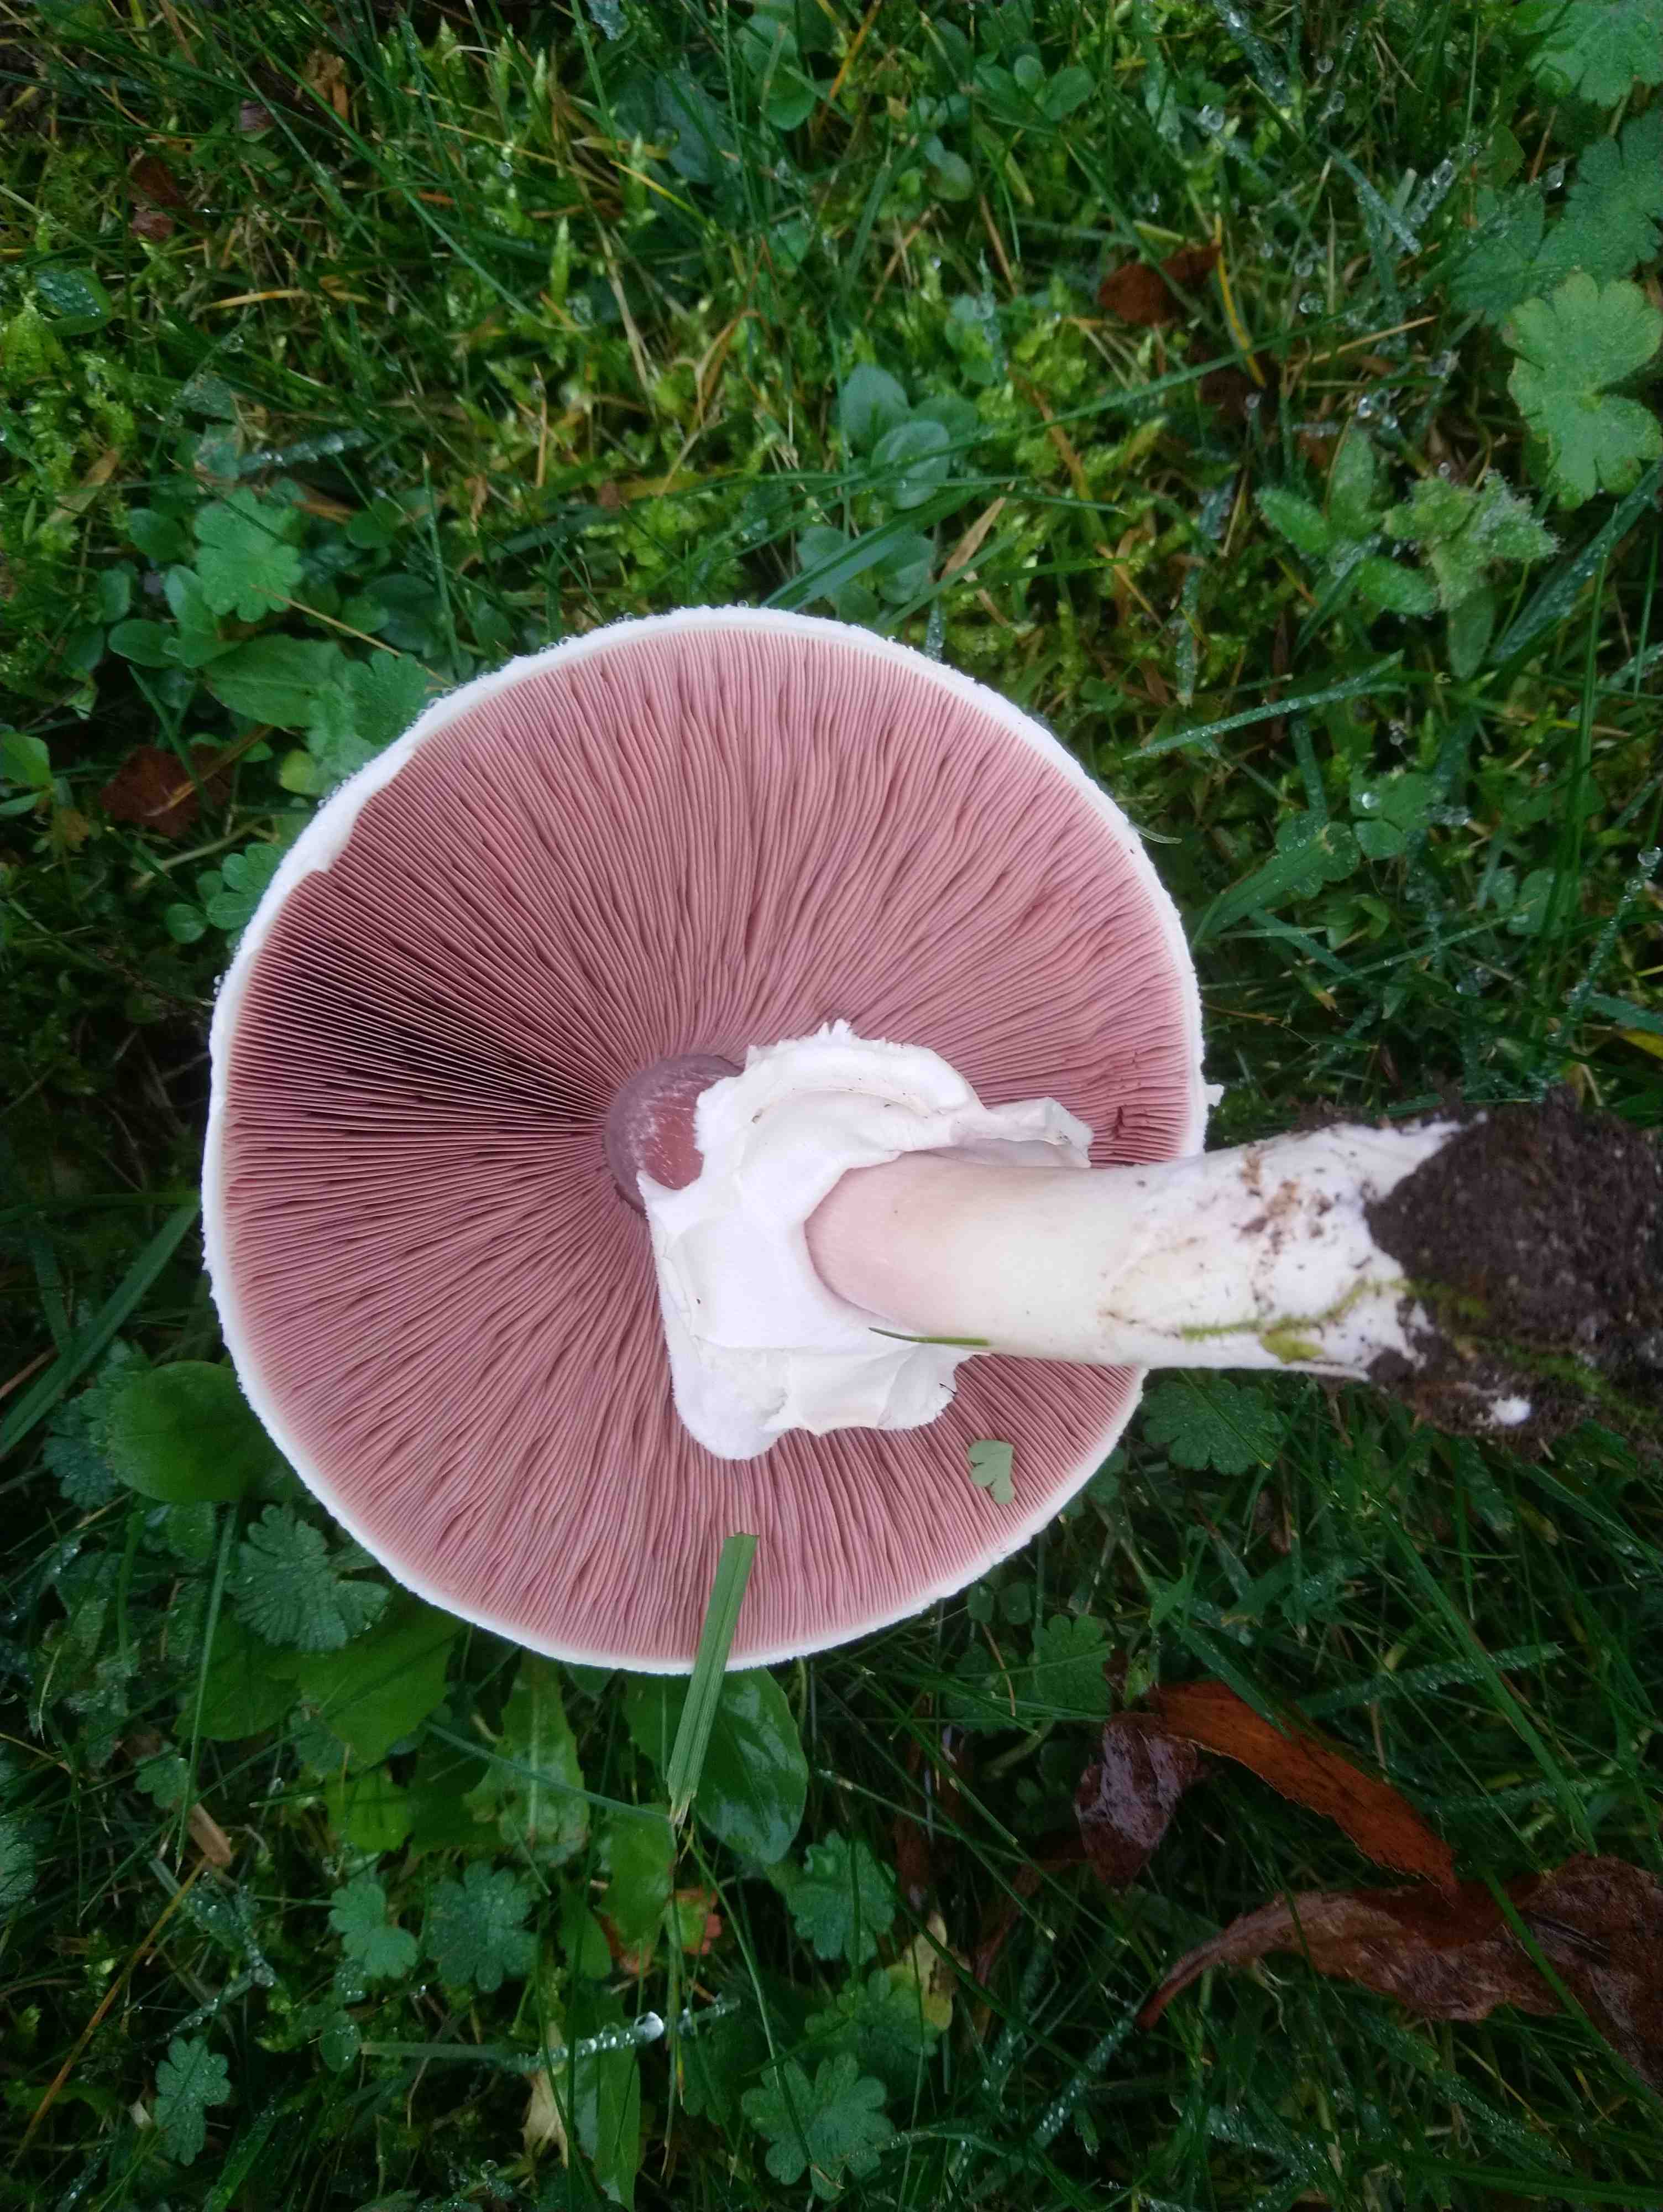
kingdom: Fungi
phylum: Basidiomycota
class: Agaricomycetes
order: Agaricales
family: Agaricaceae
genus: Agaricus
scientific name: Agaricus campestris
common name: mark-champignon
